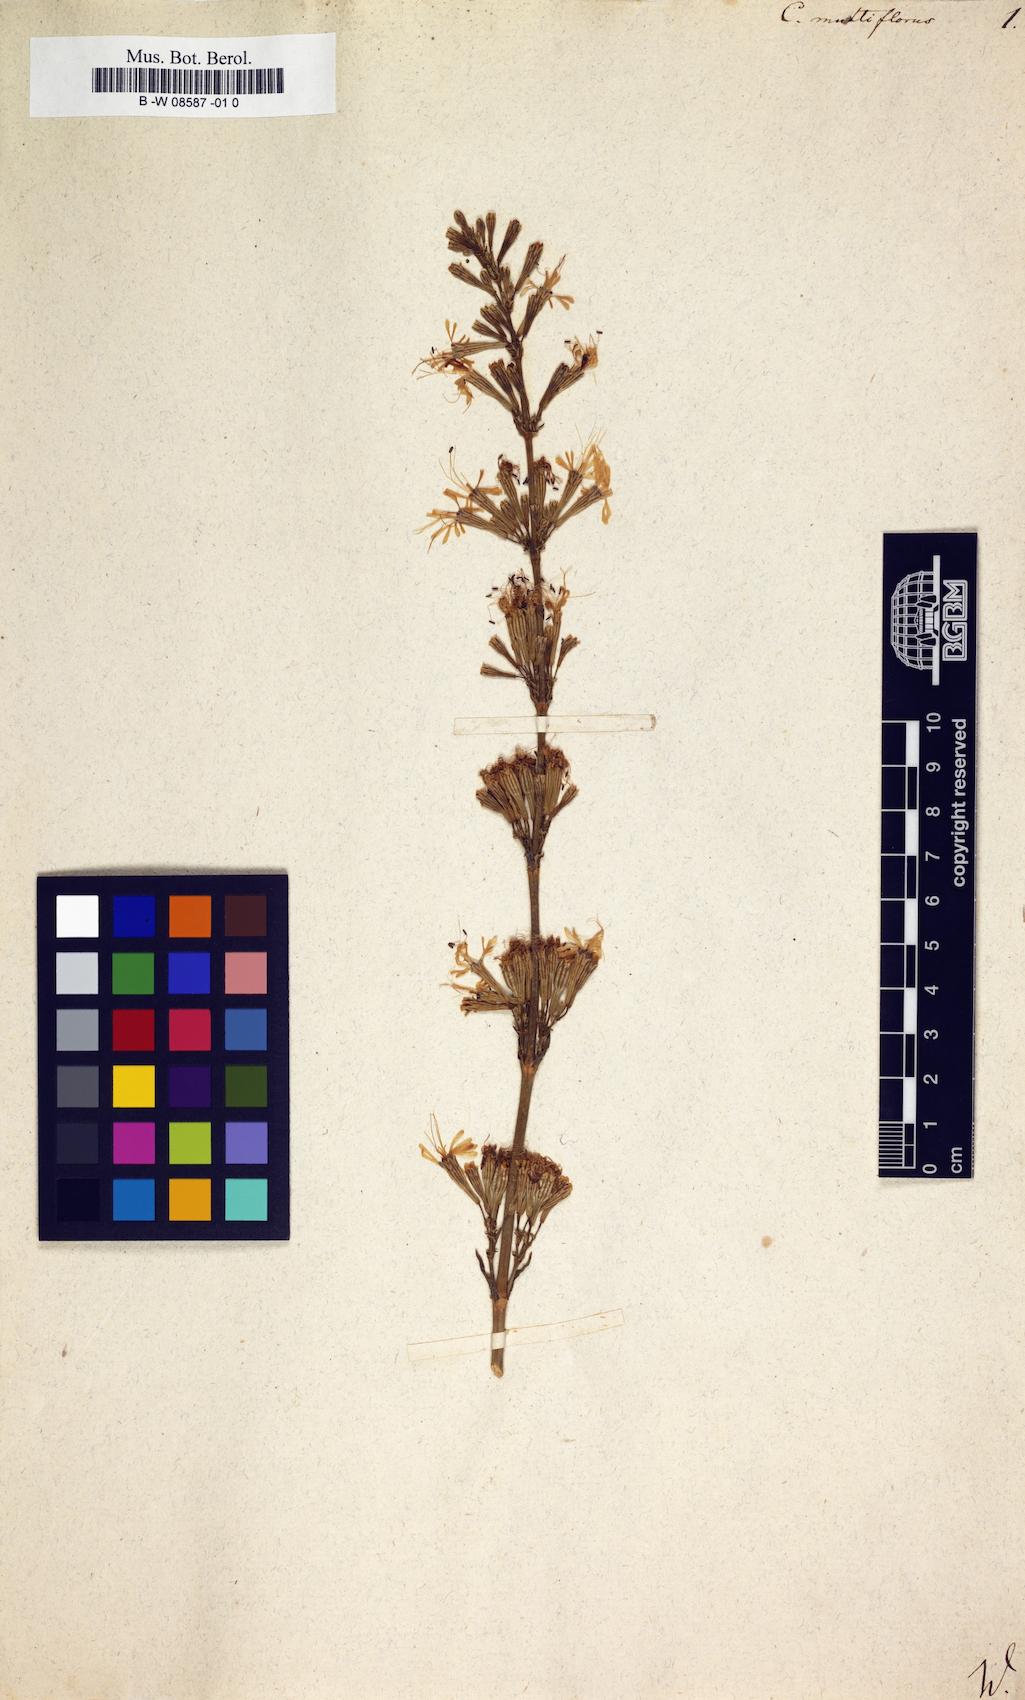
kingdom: Plantae
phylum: Tracheophyta
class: Magnoliopsida
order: Caryophyllales
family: Caryophyllaceae
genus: Silene
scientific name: Silene multiflora
